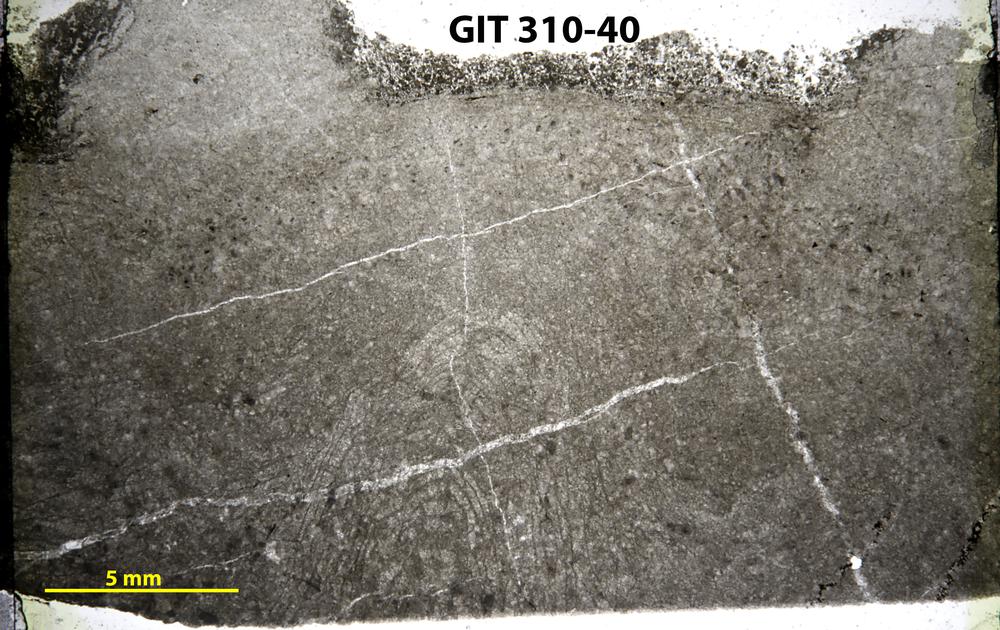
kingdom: Animalia
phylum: Porifera
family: Labechiidae
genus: Stromatocerium
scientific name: Stromatocerium
